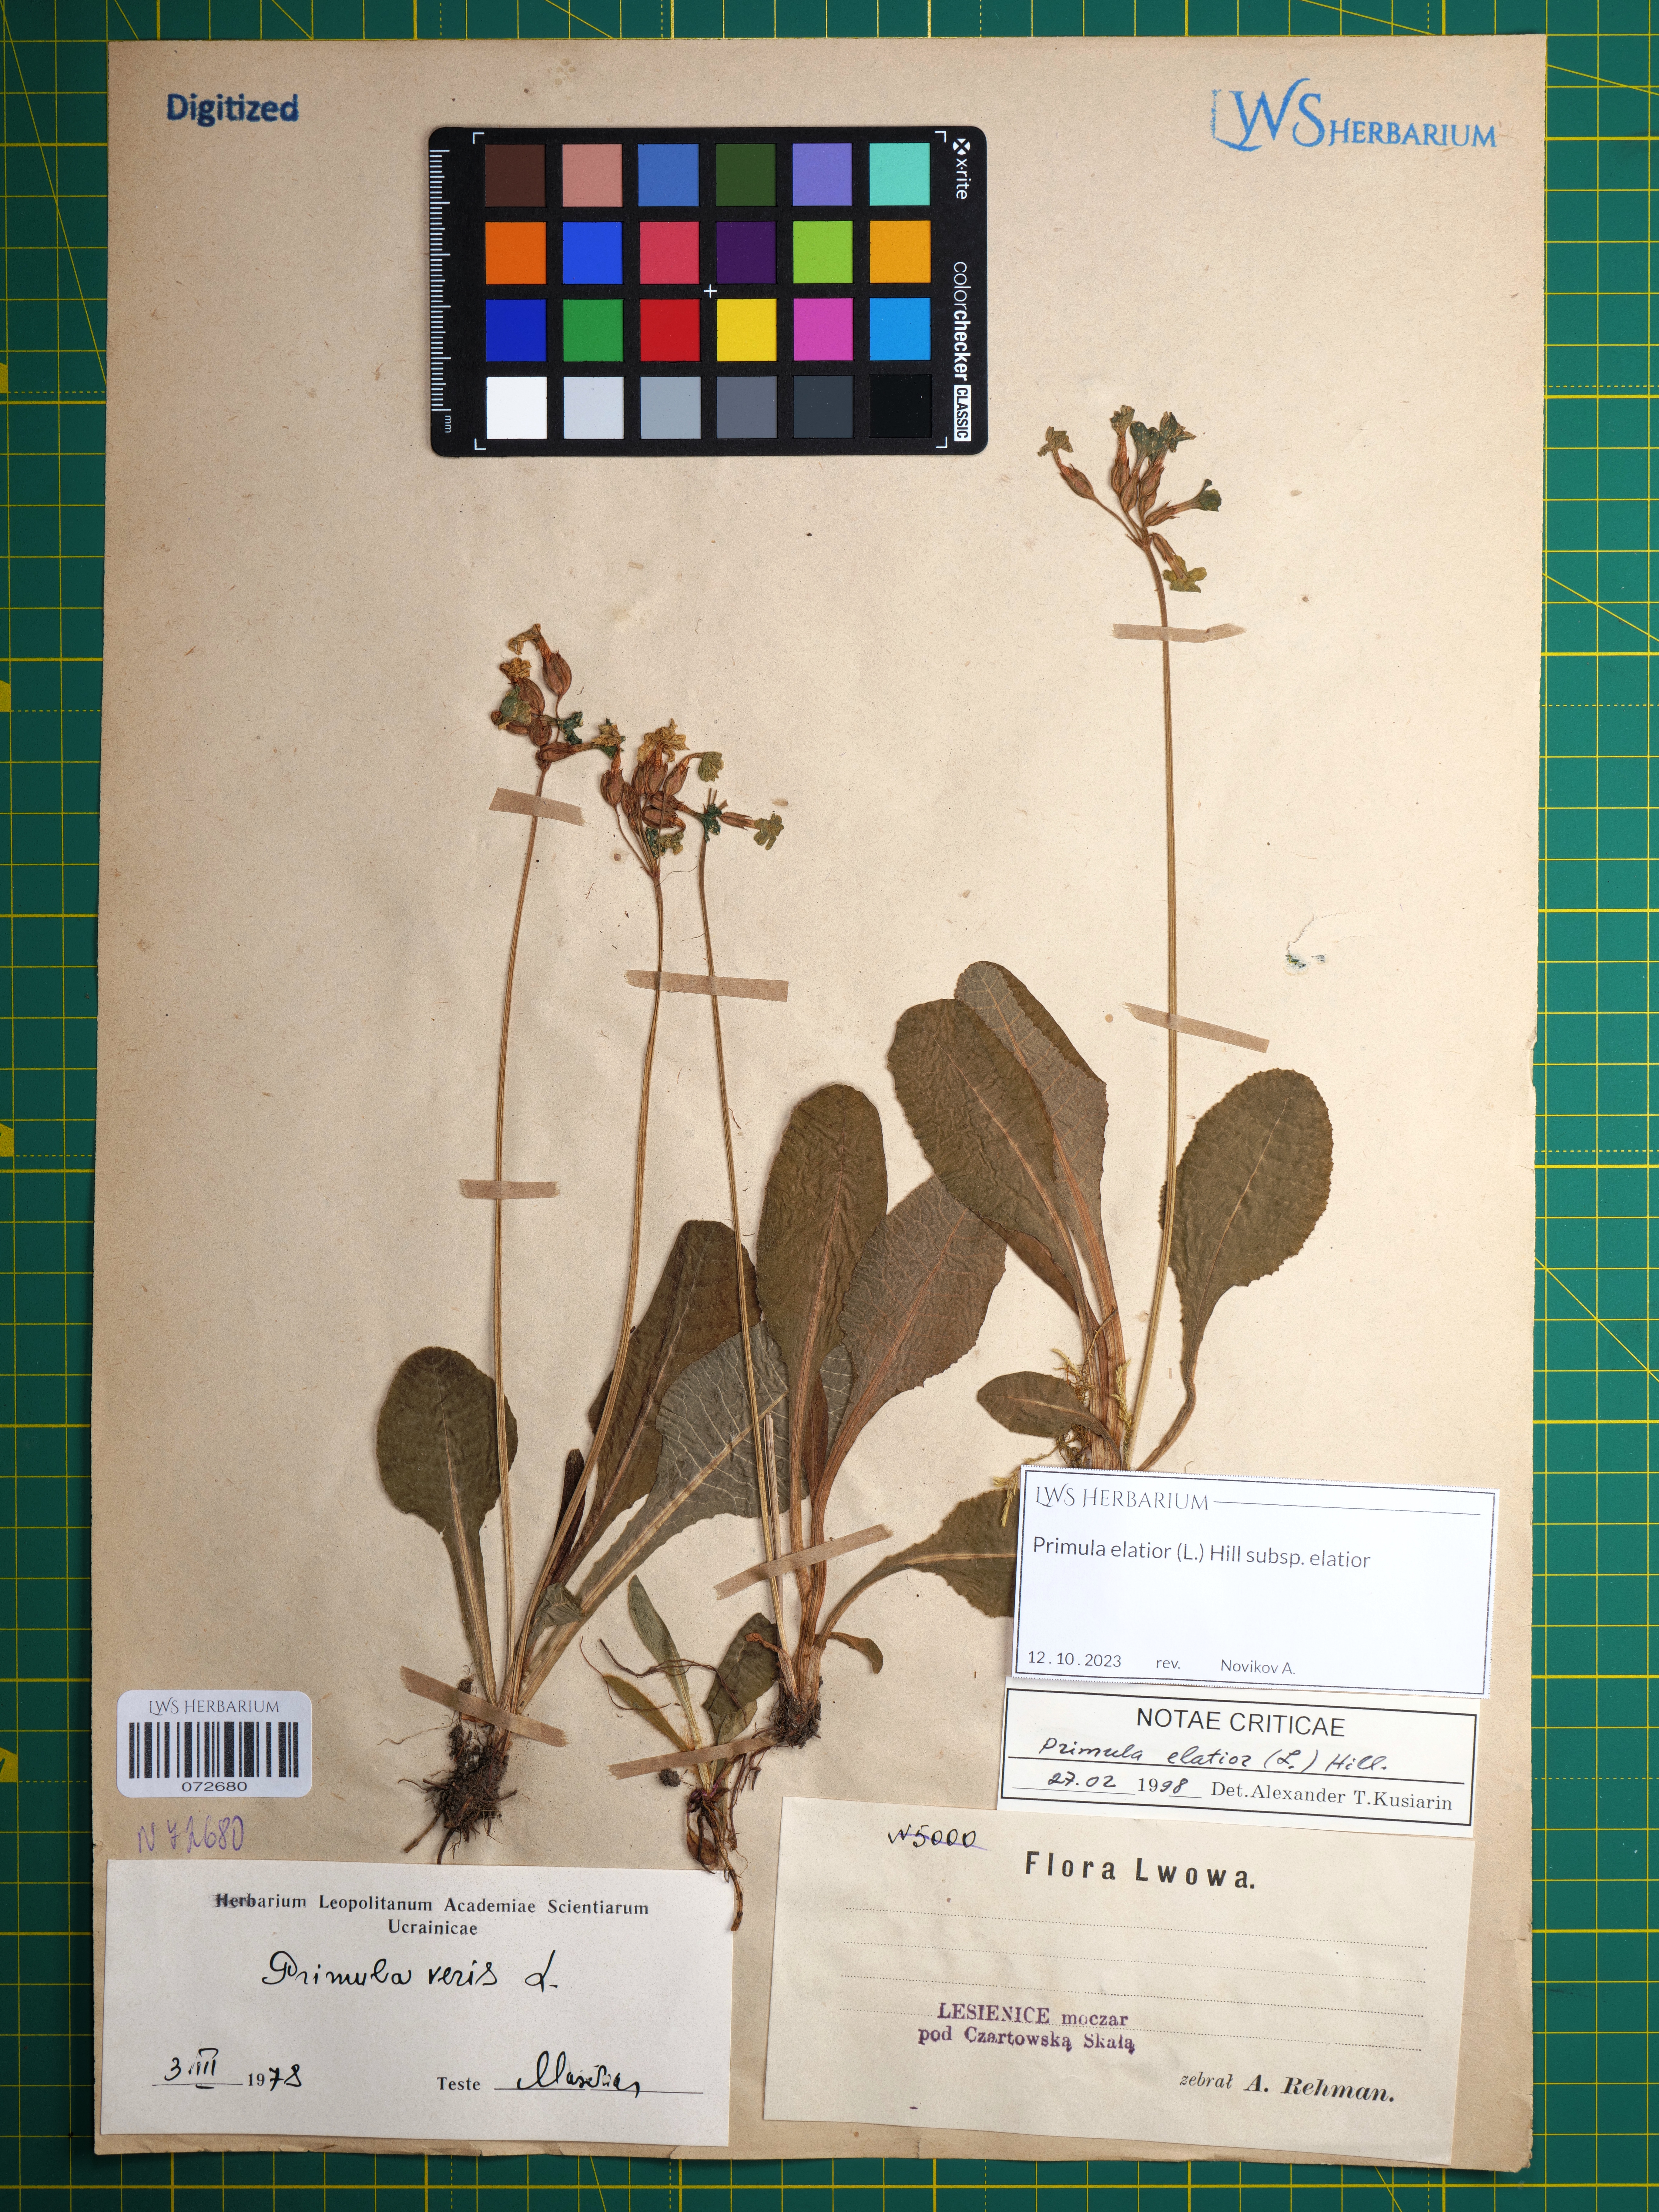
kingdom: Plantae
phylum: Tracheophyta
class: Magnoliopsida
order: Ericales
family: Primulaceae
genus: Primula
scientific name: Primula elatior
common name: Oxlip
